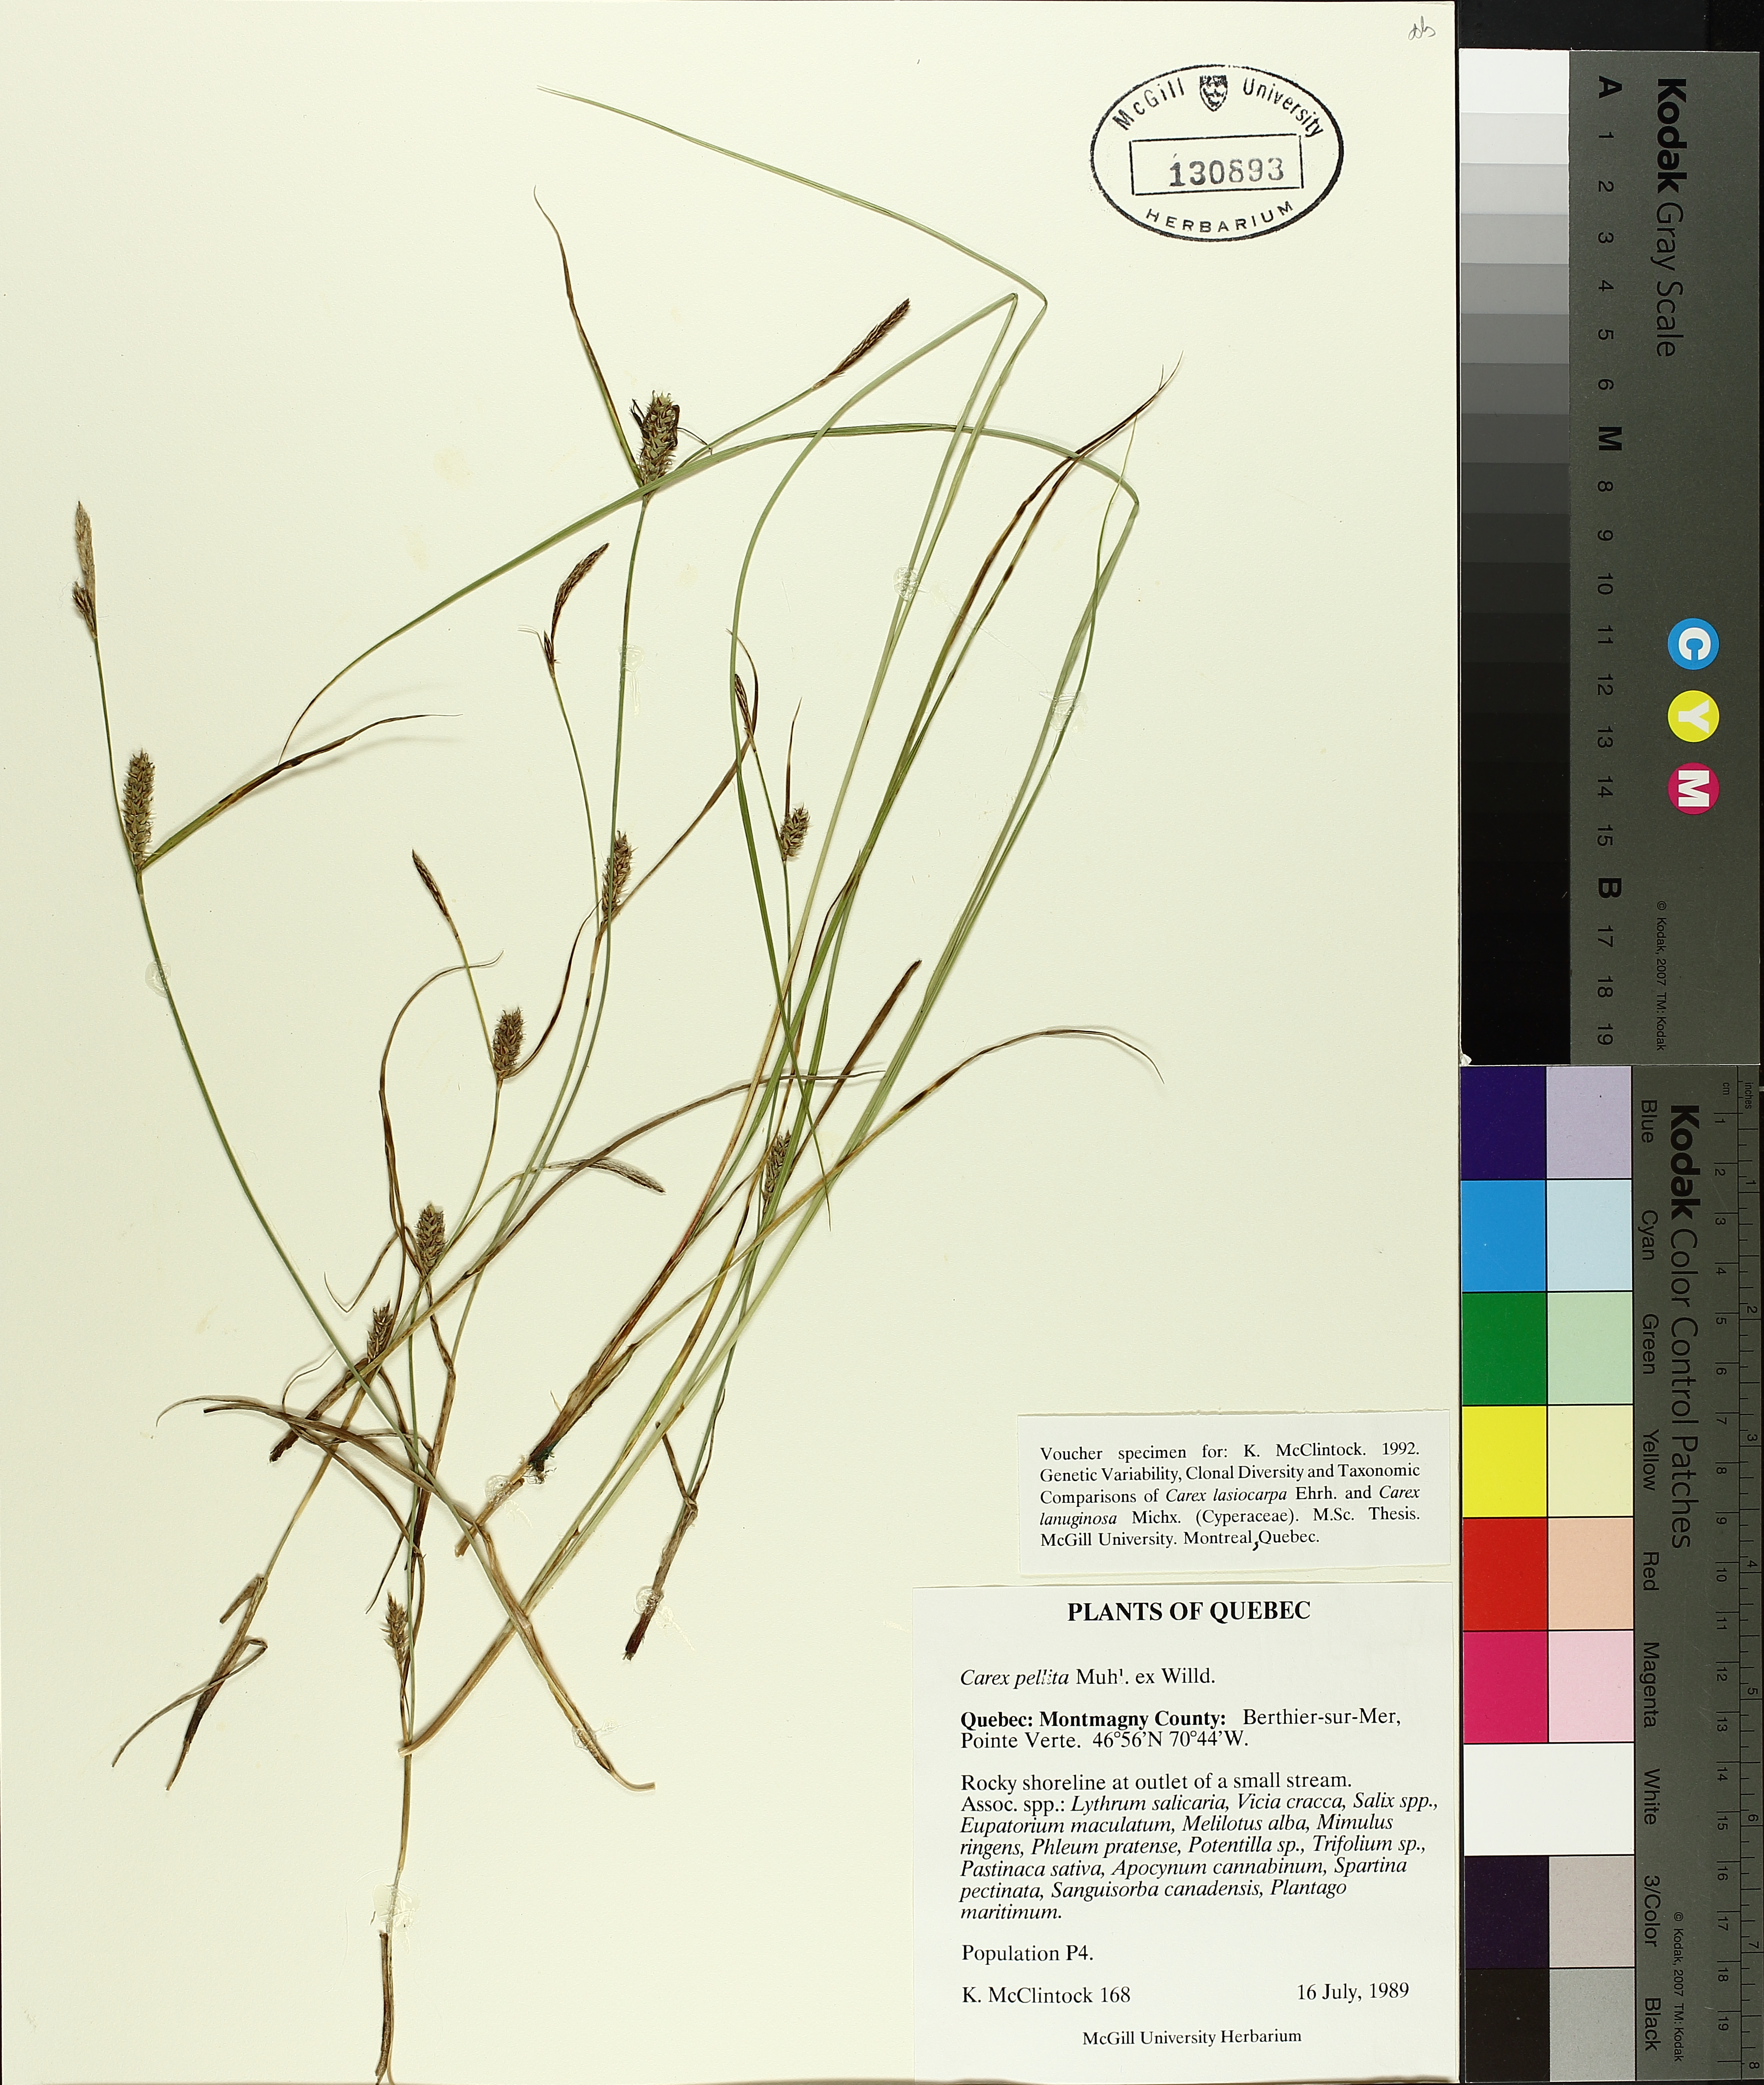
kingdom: Plantae
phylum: Tracheophyta
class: Liliopsida
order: Poales
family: Cyperaceae
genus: Carex
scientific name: Carex pellita
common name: Woolly sedge
